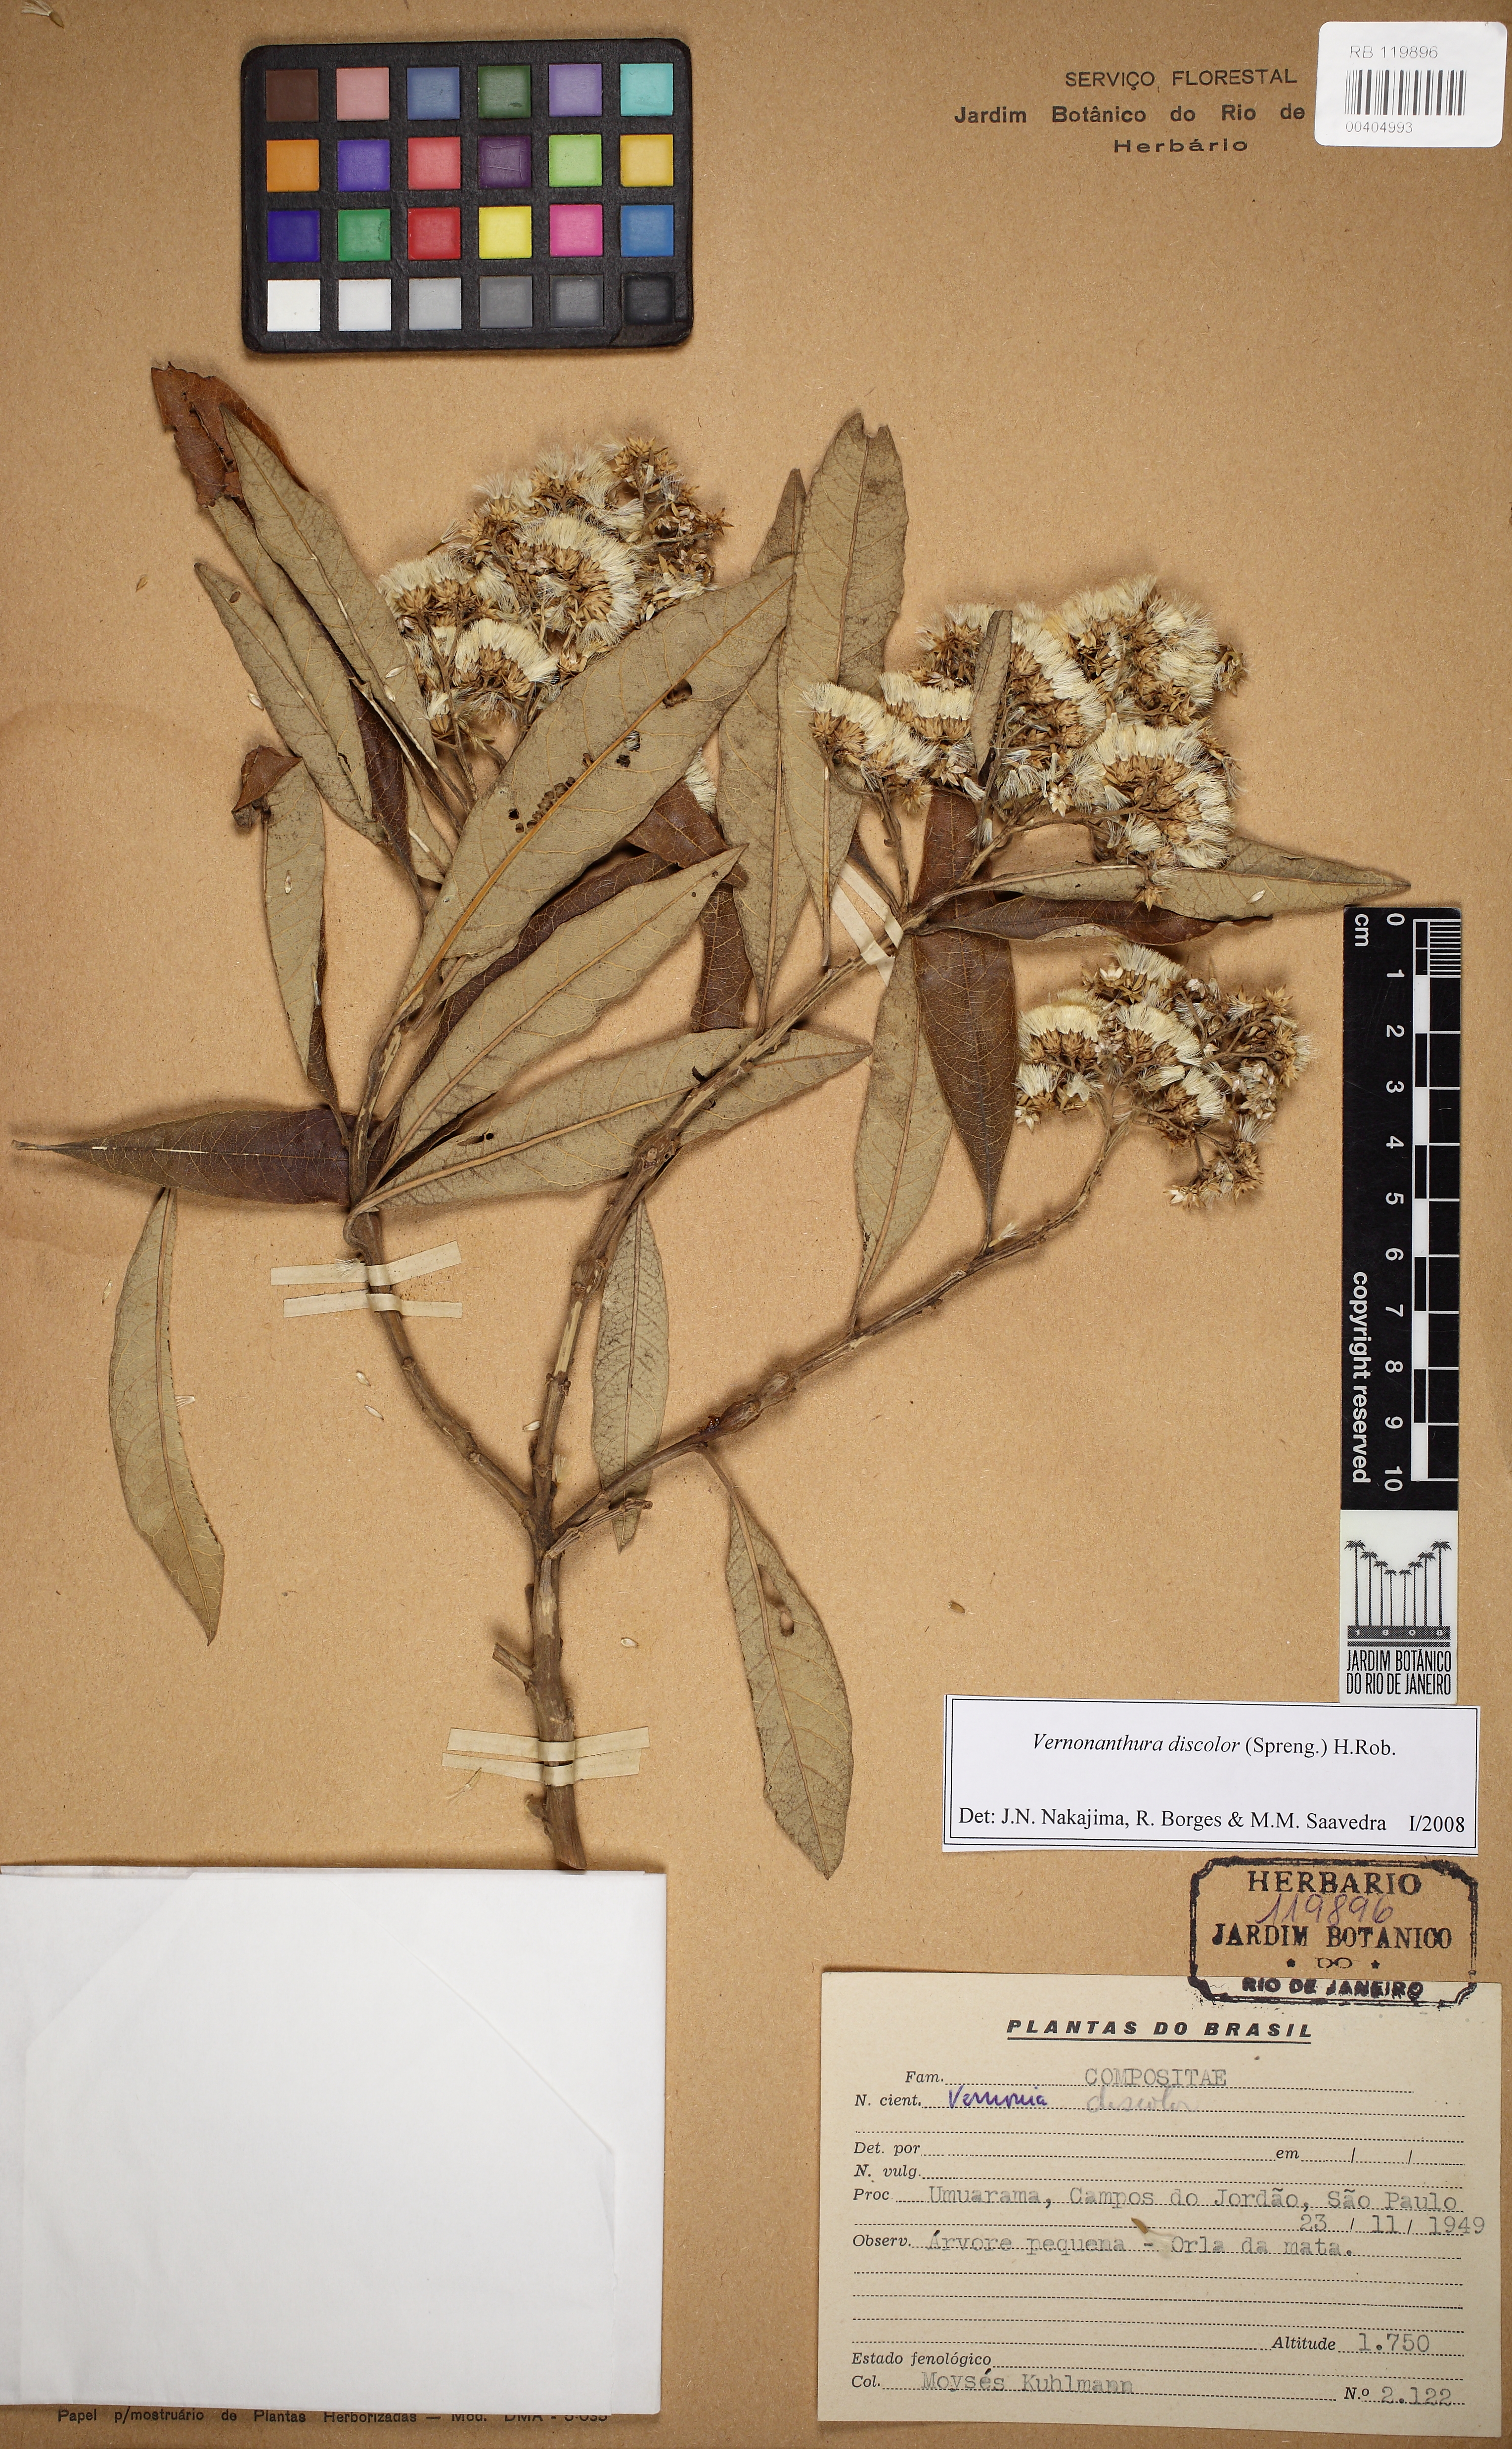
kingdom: Plantae
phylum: Tracheophyta
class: Magnoliopsida
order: Asterales
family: Asteraceae
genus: Vernonanthura
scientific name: Vernonanthura discolor
